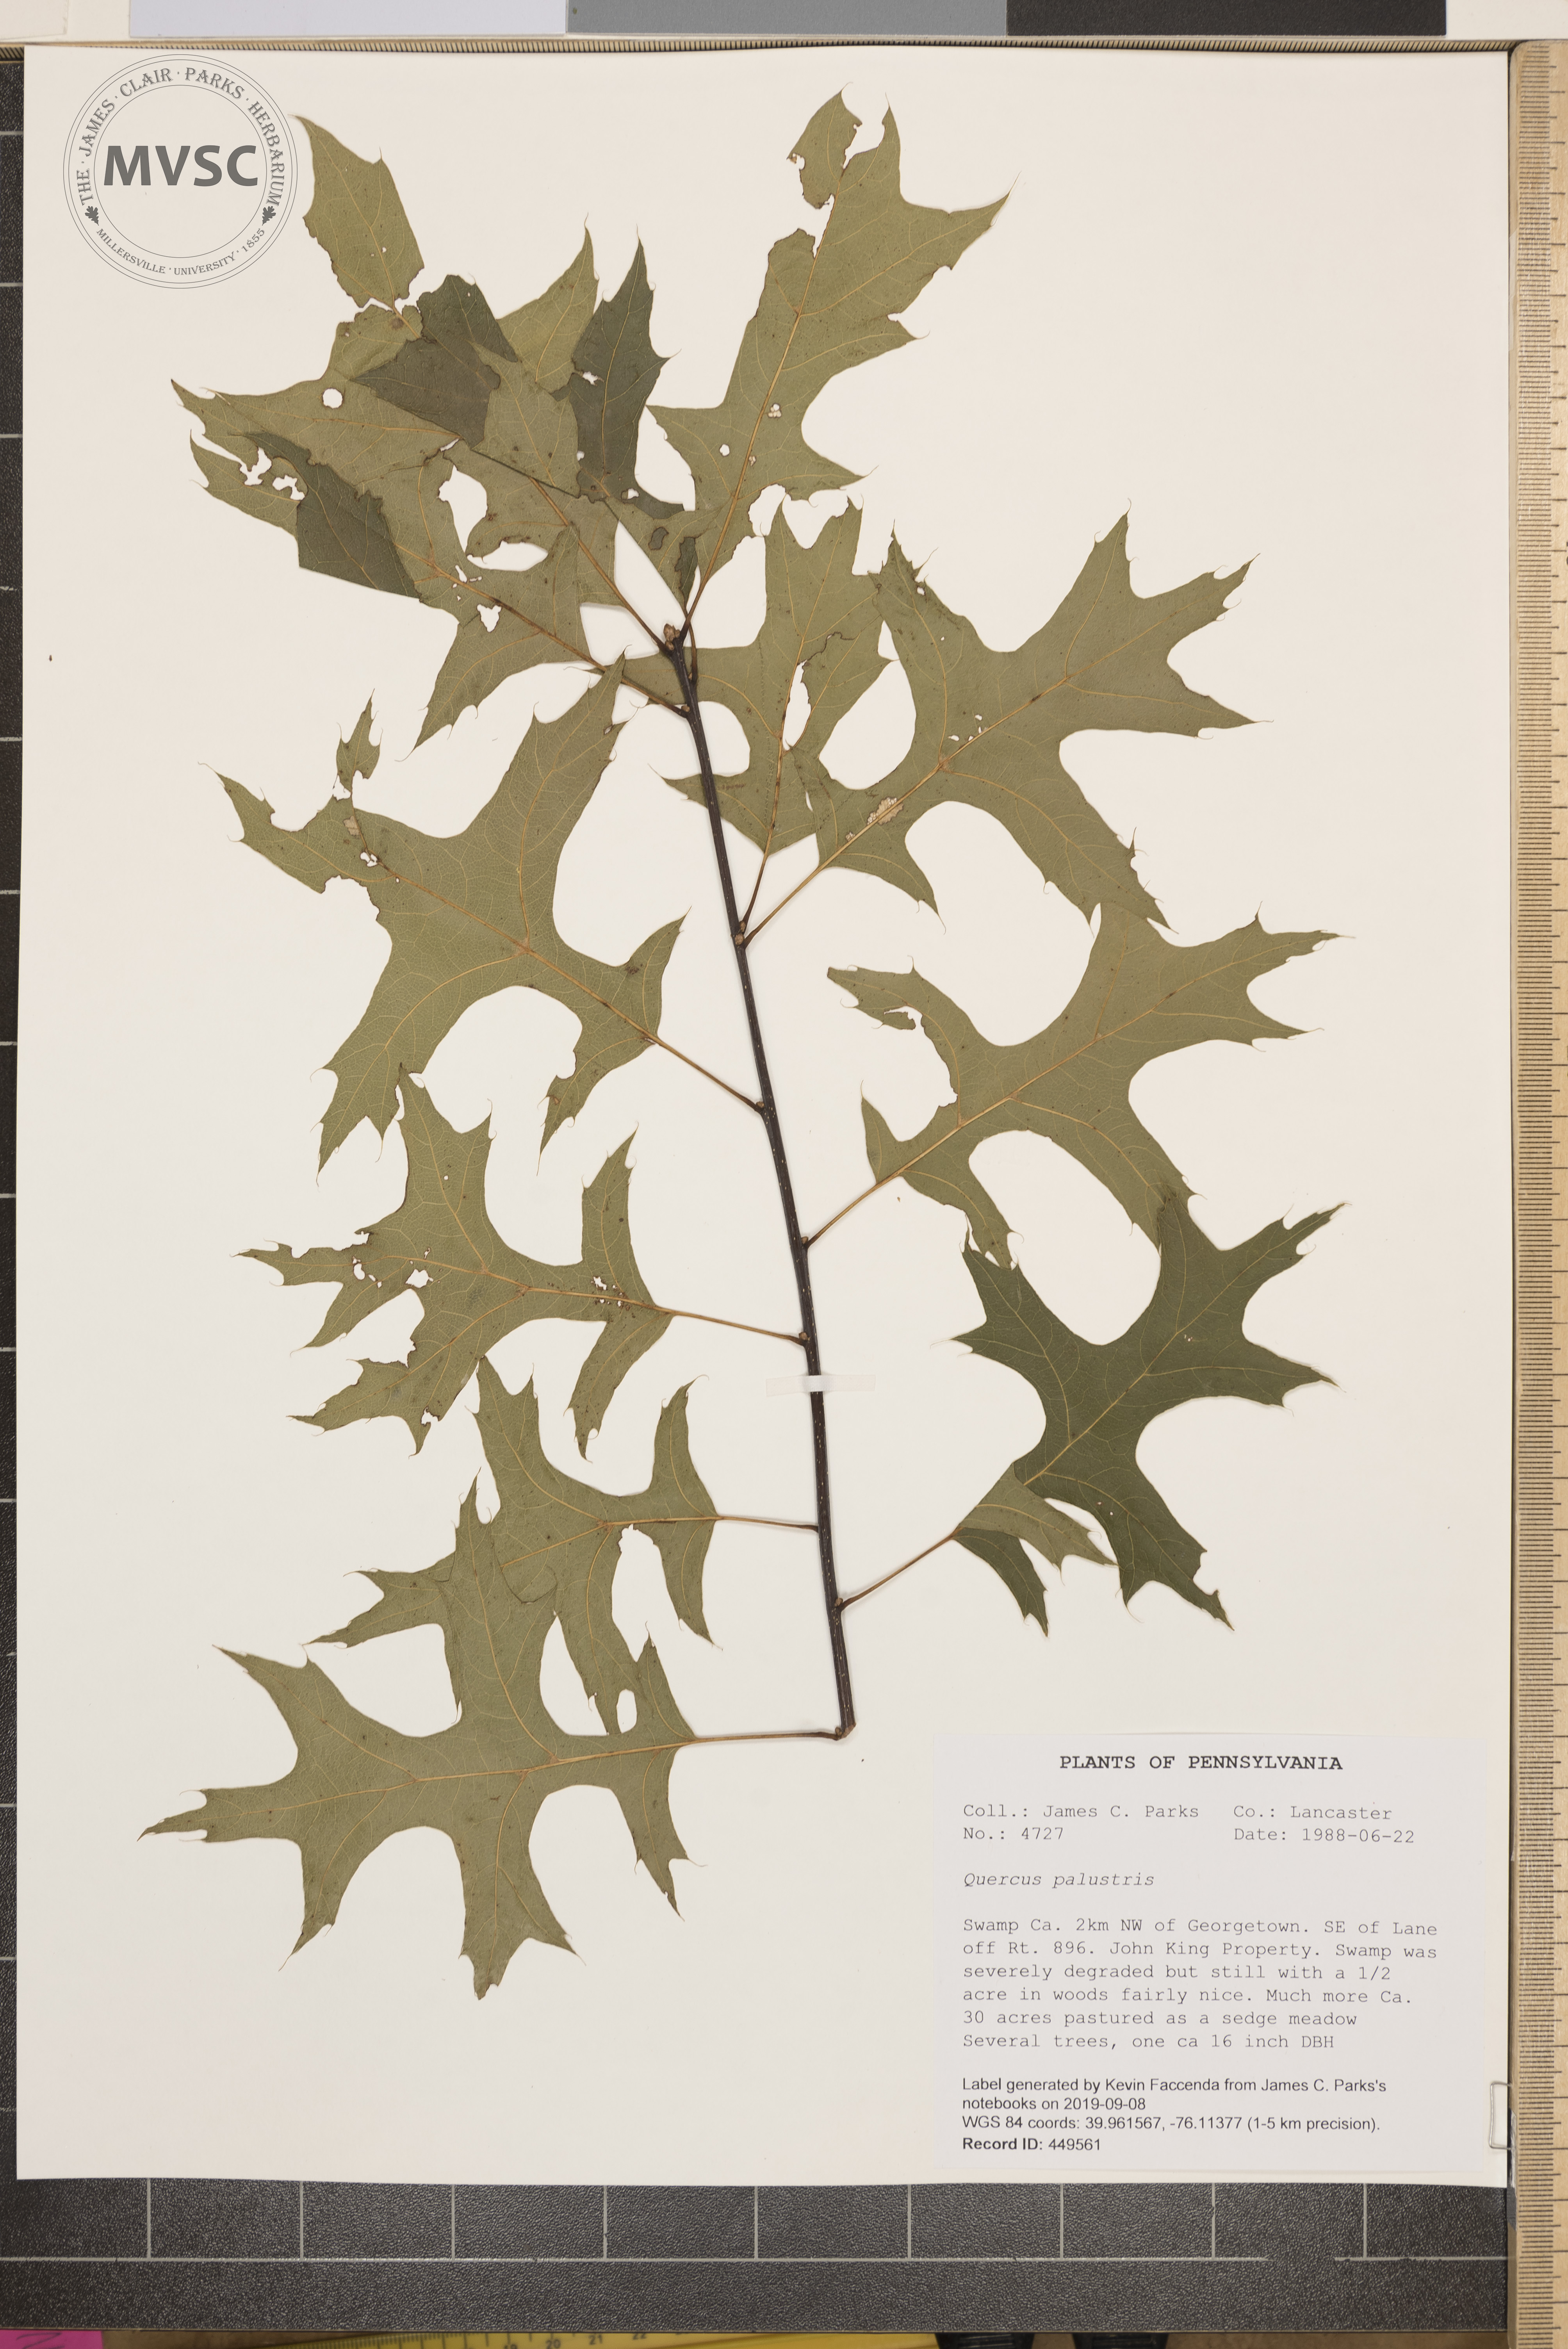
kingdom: Plantae
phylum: Tracheophyta
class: Magnoliopsida
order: Fagales
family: Fagaceae
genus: Quercus
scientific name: Quercus palustris
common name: Pin oak
